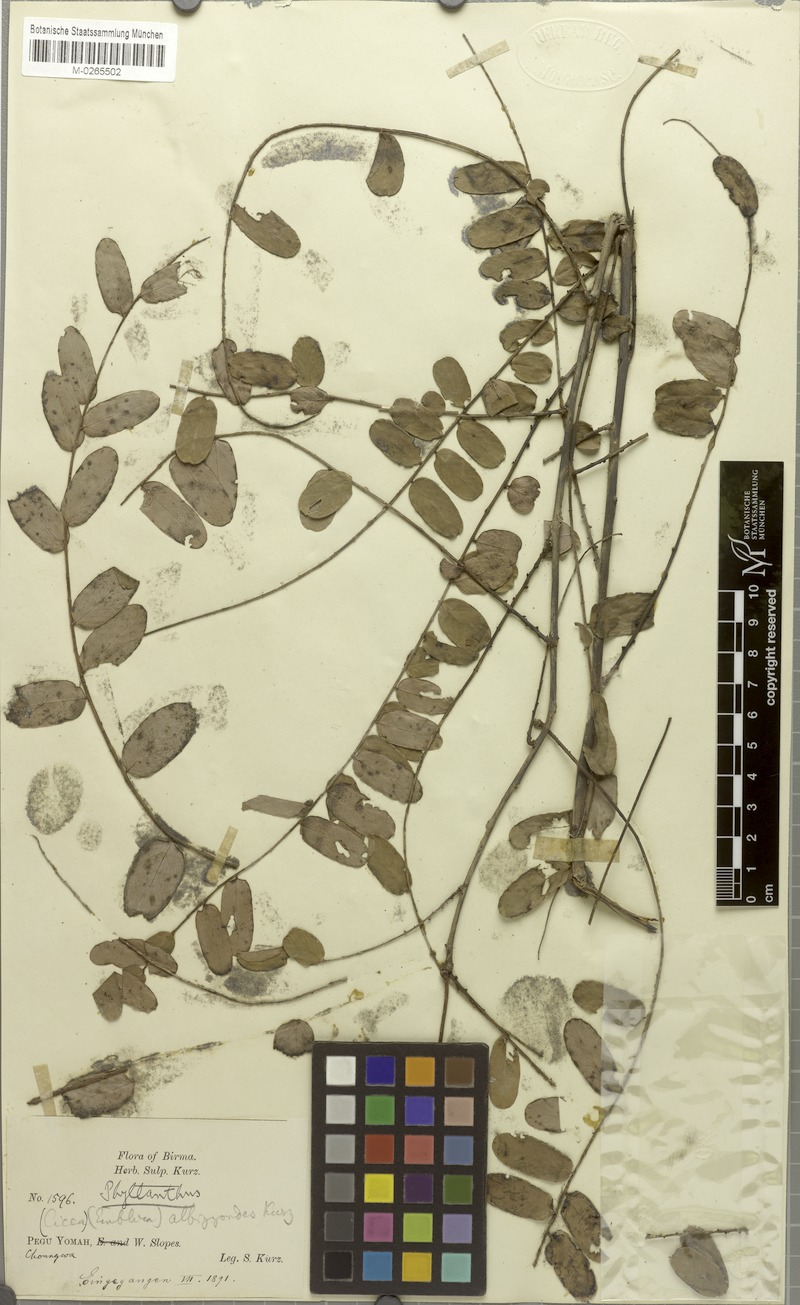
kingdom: Plantae
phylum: Tracheophyta
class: Magnoliopsida
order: Malpighiales
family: Phyllanthaceae
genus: Phyllanthus
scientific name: Phyllanthus albizzioides
